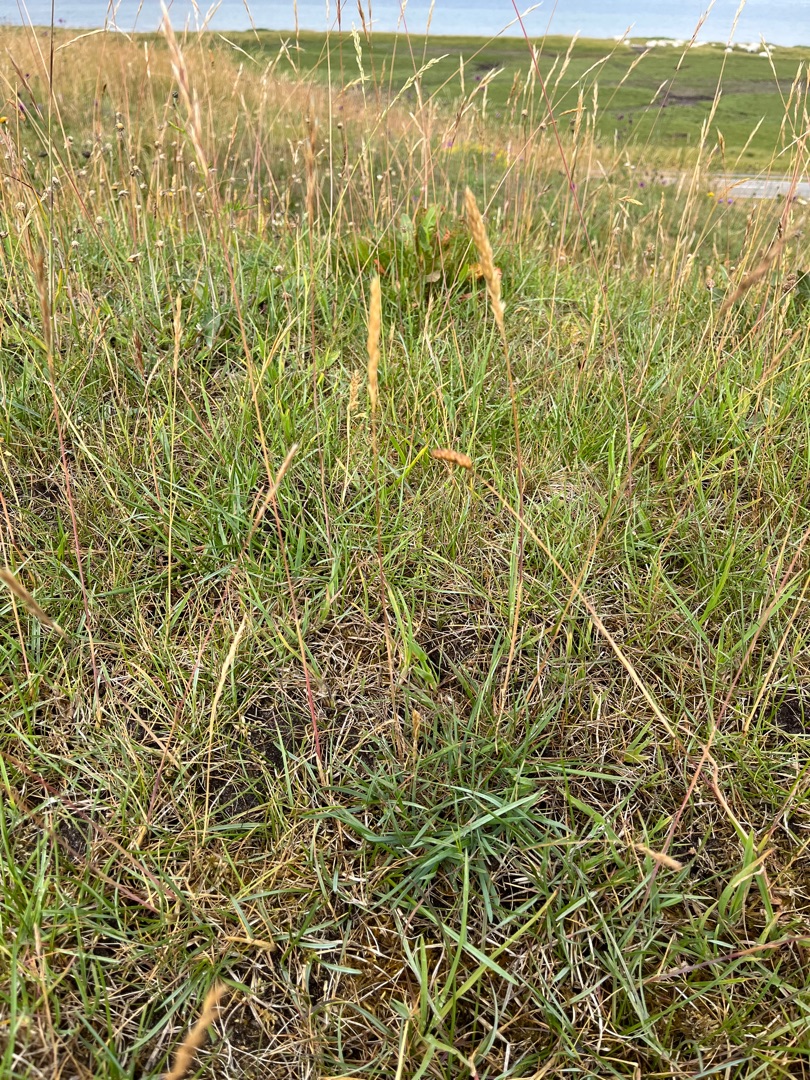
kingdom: Plantae
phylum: Tracheophyta
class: Liliopsida
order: Poales
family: Poaceae
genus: Koeleria
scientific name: Koeleria pyramidata
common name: Dansk kambunke
